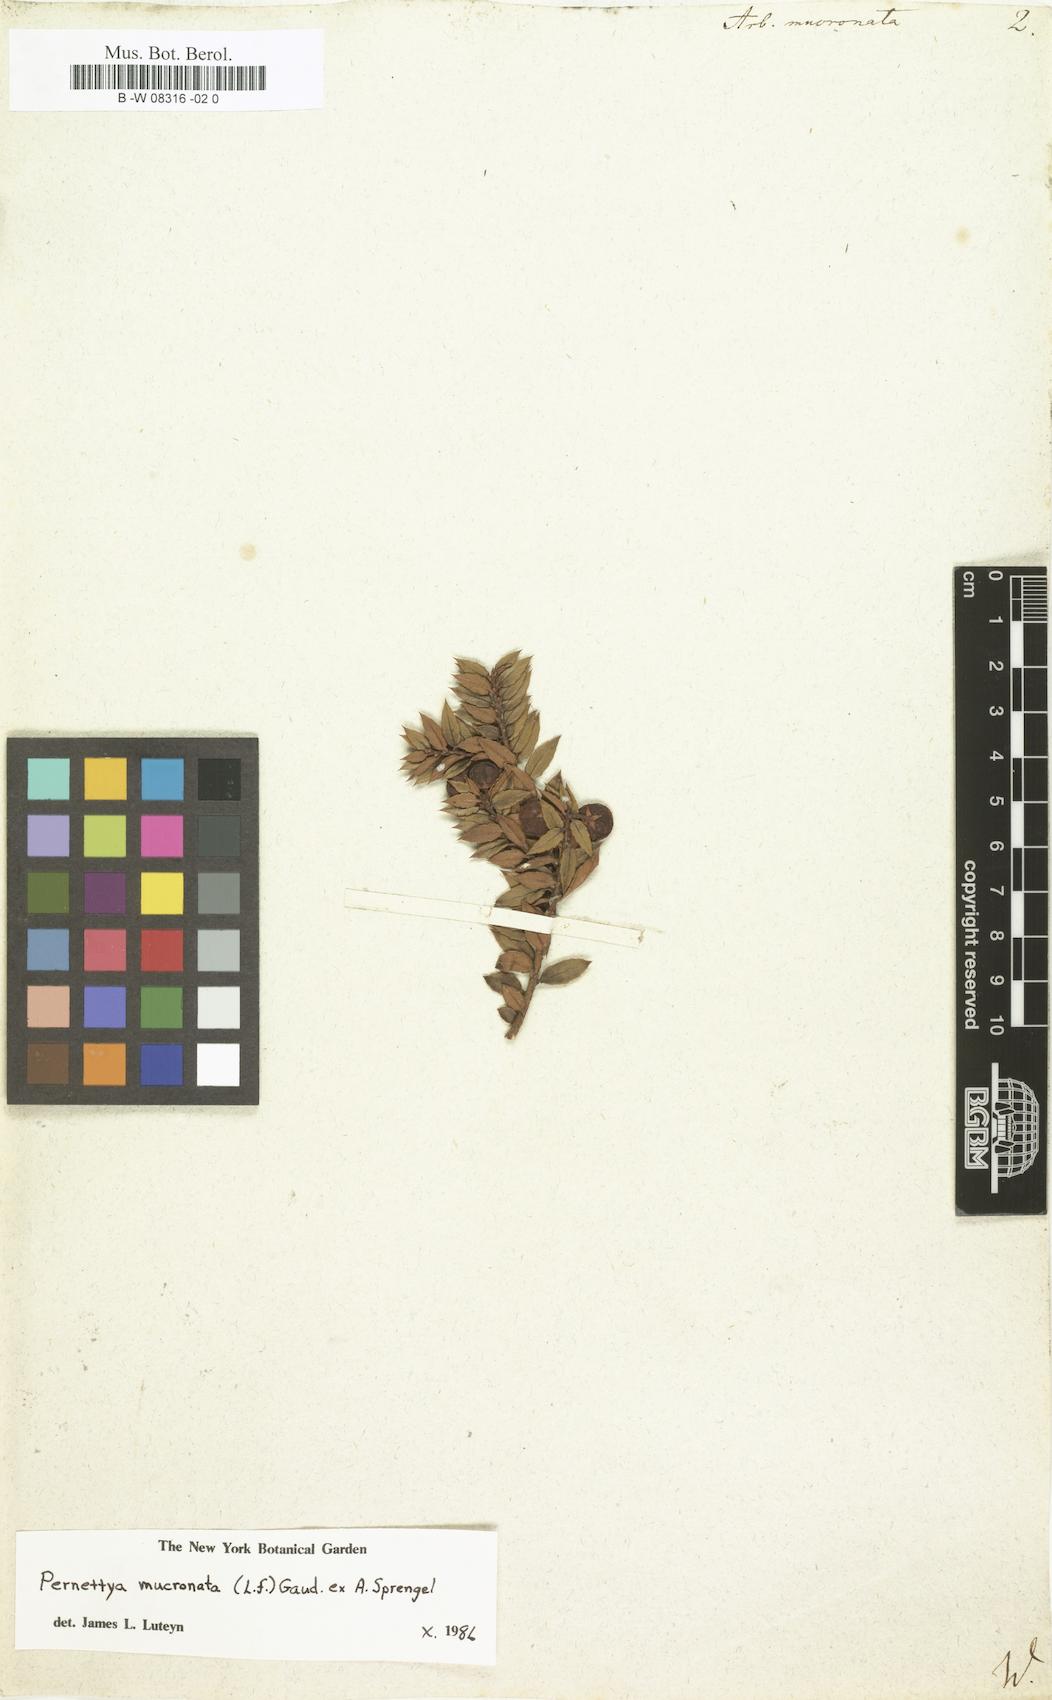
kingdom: Plantae
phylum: Tracheophyta
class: Magnoliopsida
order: Ericales
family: Ericaceae
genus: Gaultheria
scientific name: Gaultheria mucronata
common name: Prickly heath
